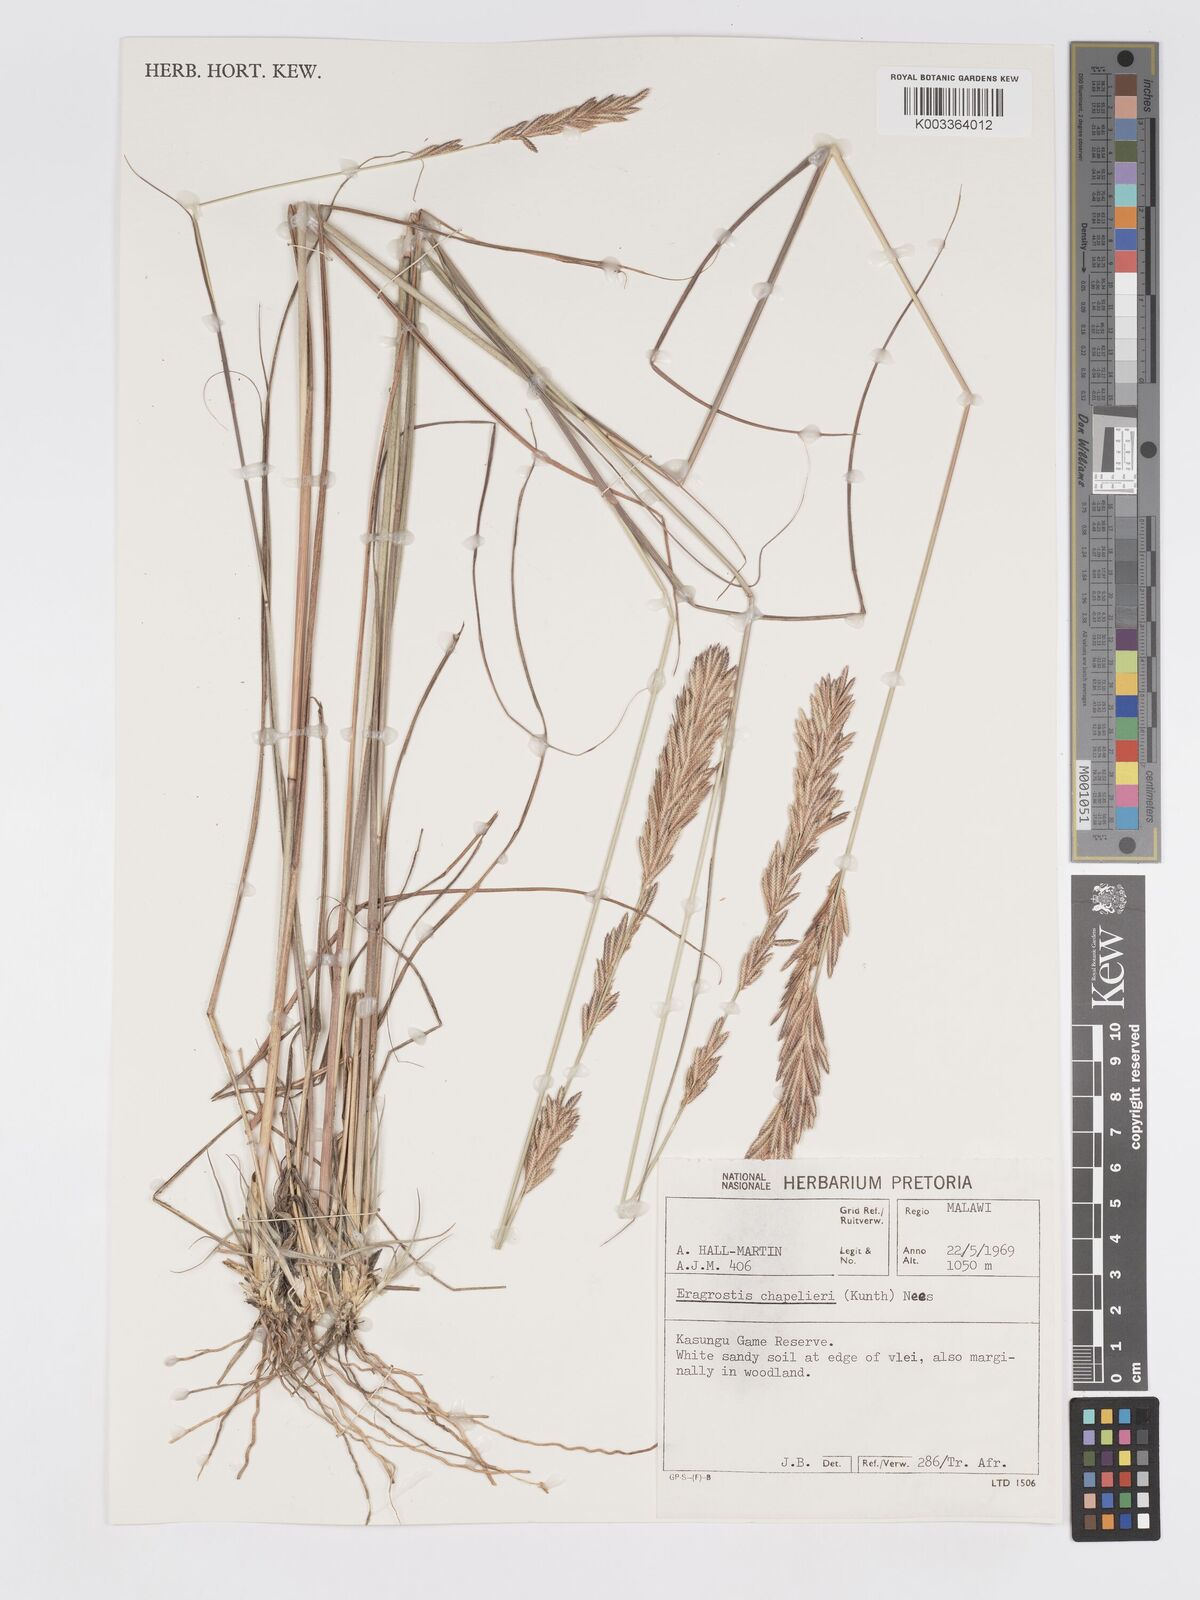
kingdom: Plantae
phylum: Tracheophyta
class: Liliopsida
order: Poales
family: Poaceae
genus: Eragrostis
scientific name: Eragrostis chapelieri
